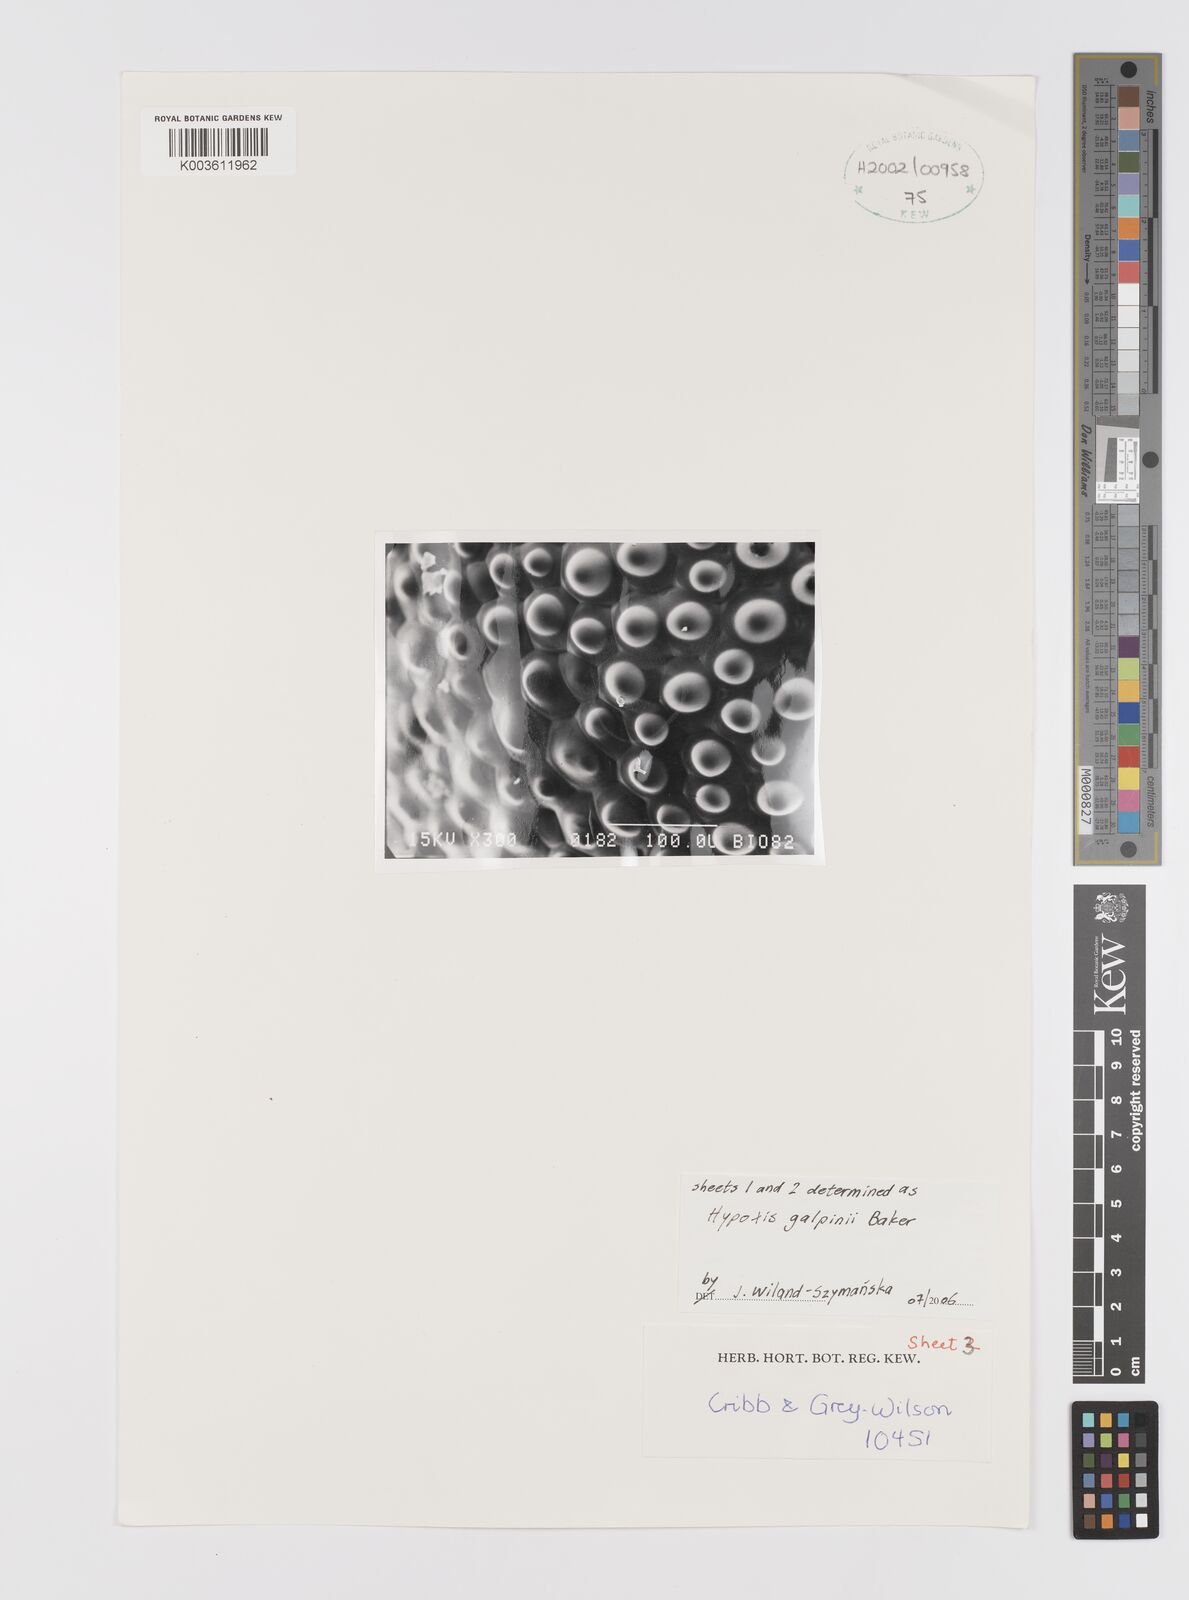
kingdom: Plantae
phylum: Tracheophyta
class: Liliopsida
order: Asparagales
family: Hypoxidaceae
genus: Hypoxis
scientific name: Hypoxis galpinii
